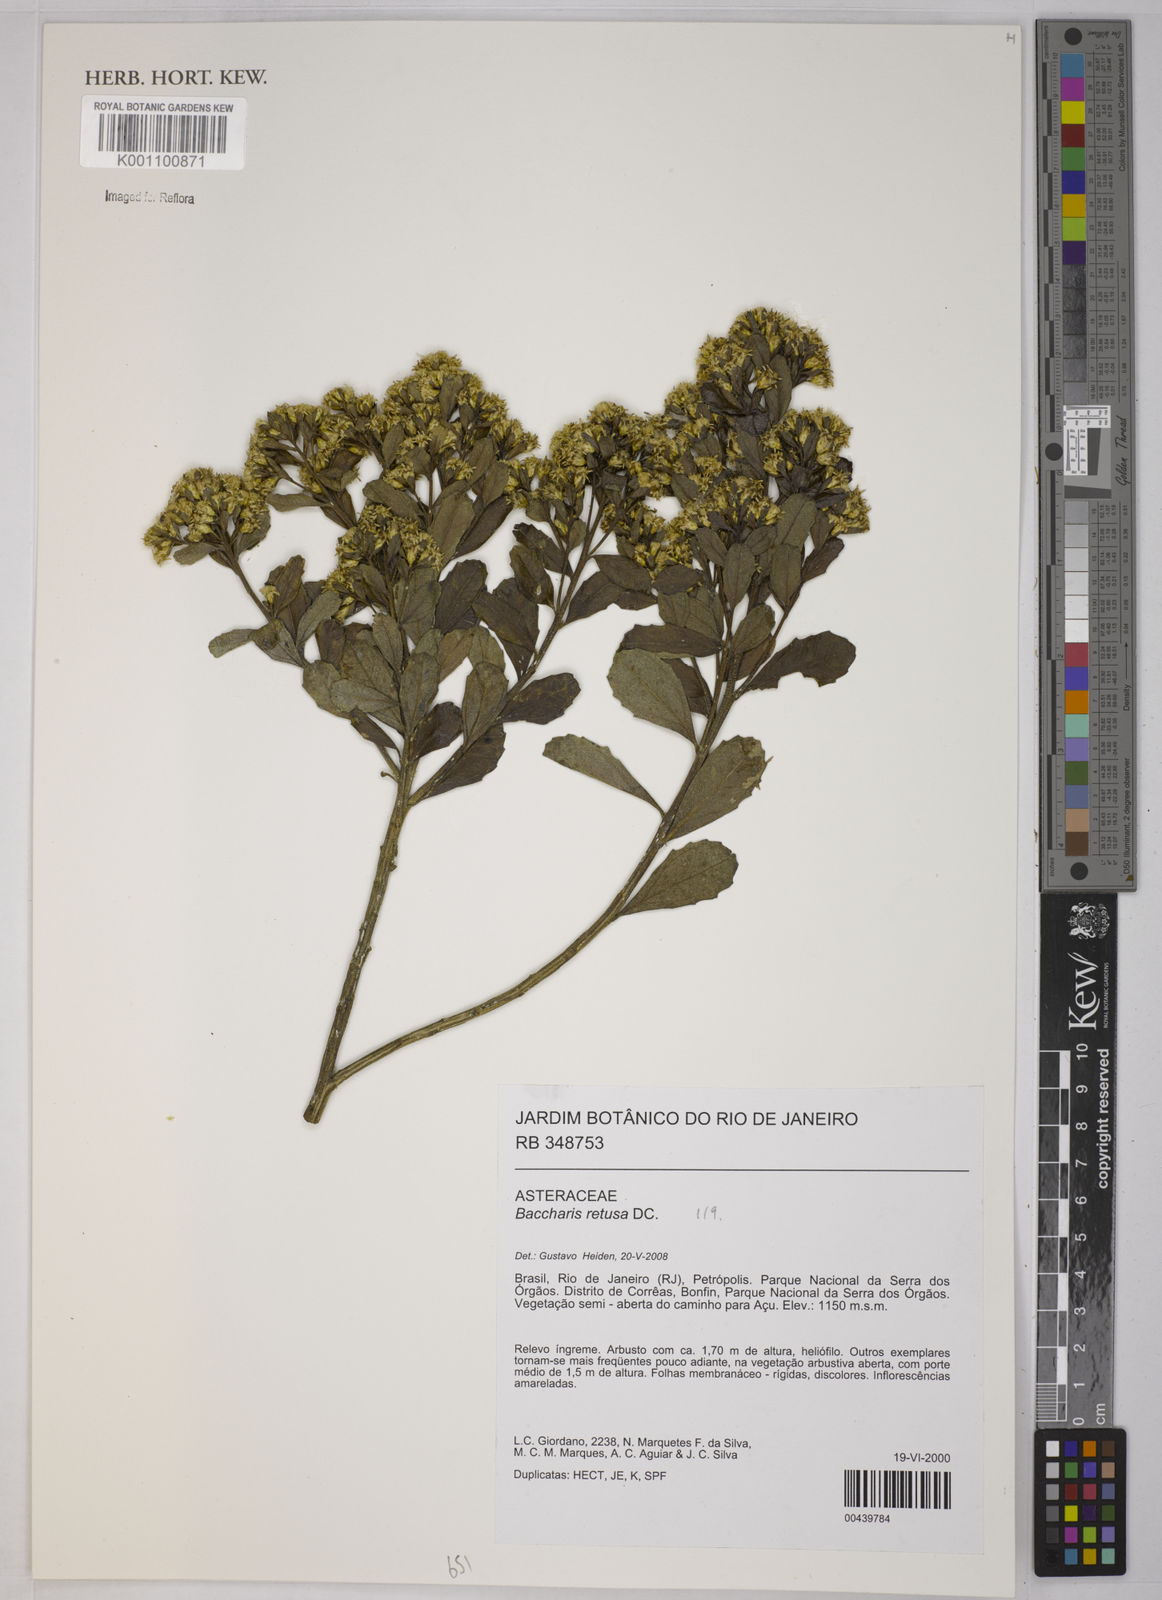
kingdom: Plantae
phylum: Tracheophyta
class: Magnoliopsida
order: Asterales
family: Asteraceae
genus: Baccharis
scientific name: Baccharis retusa
